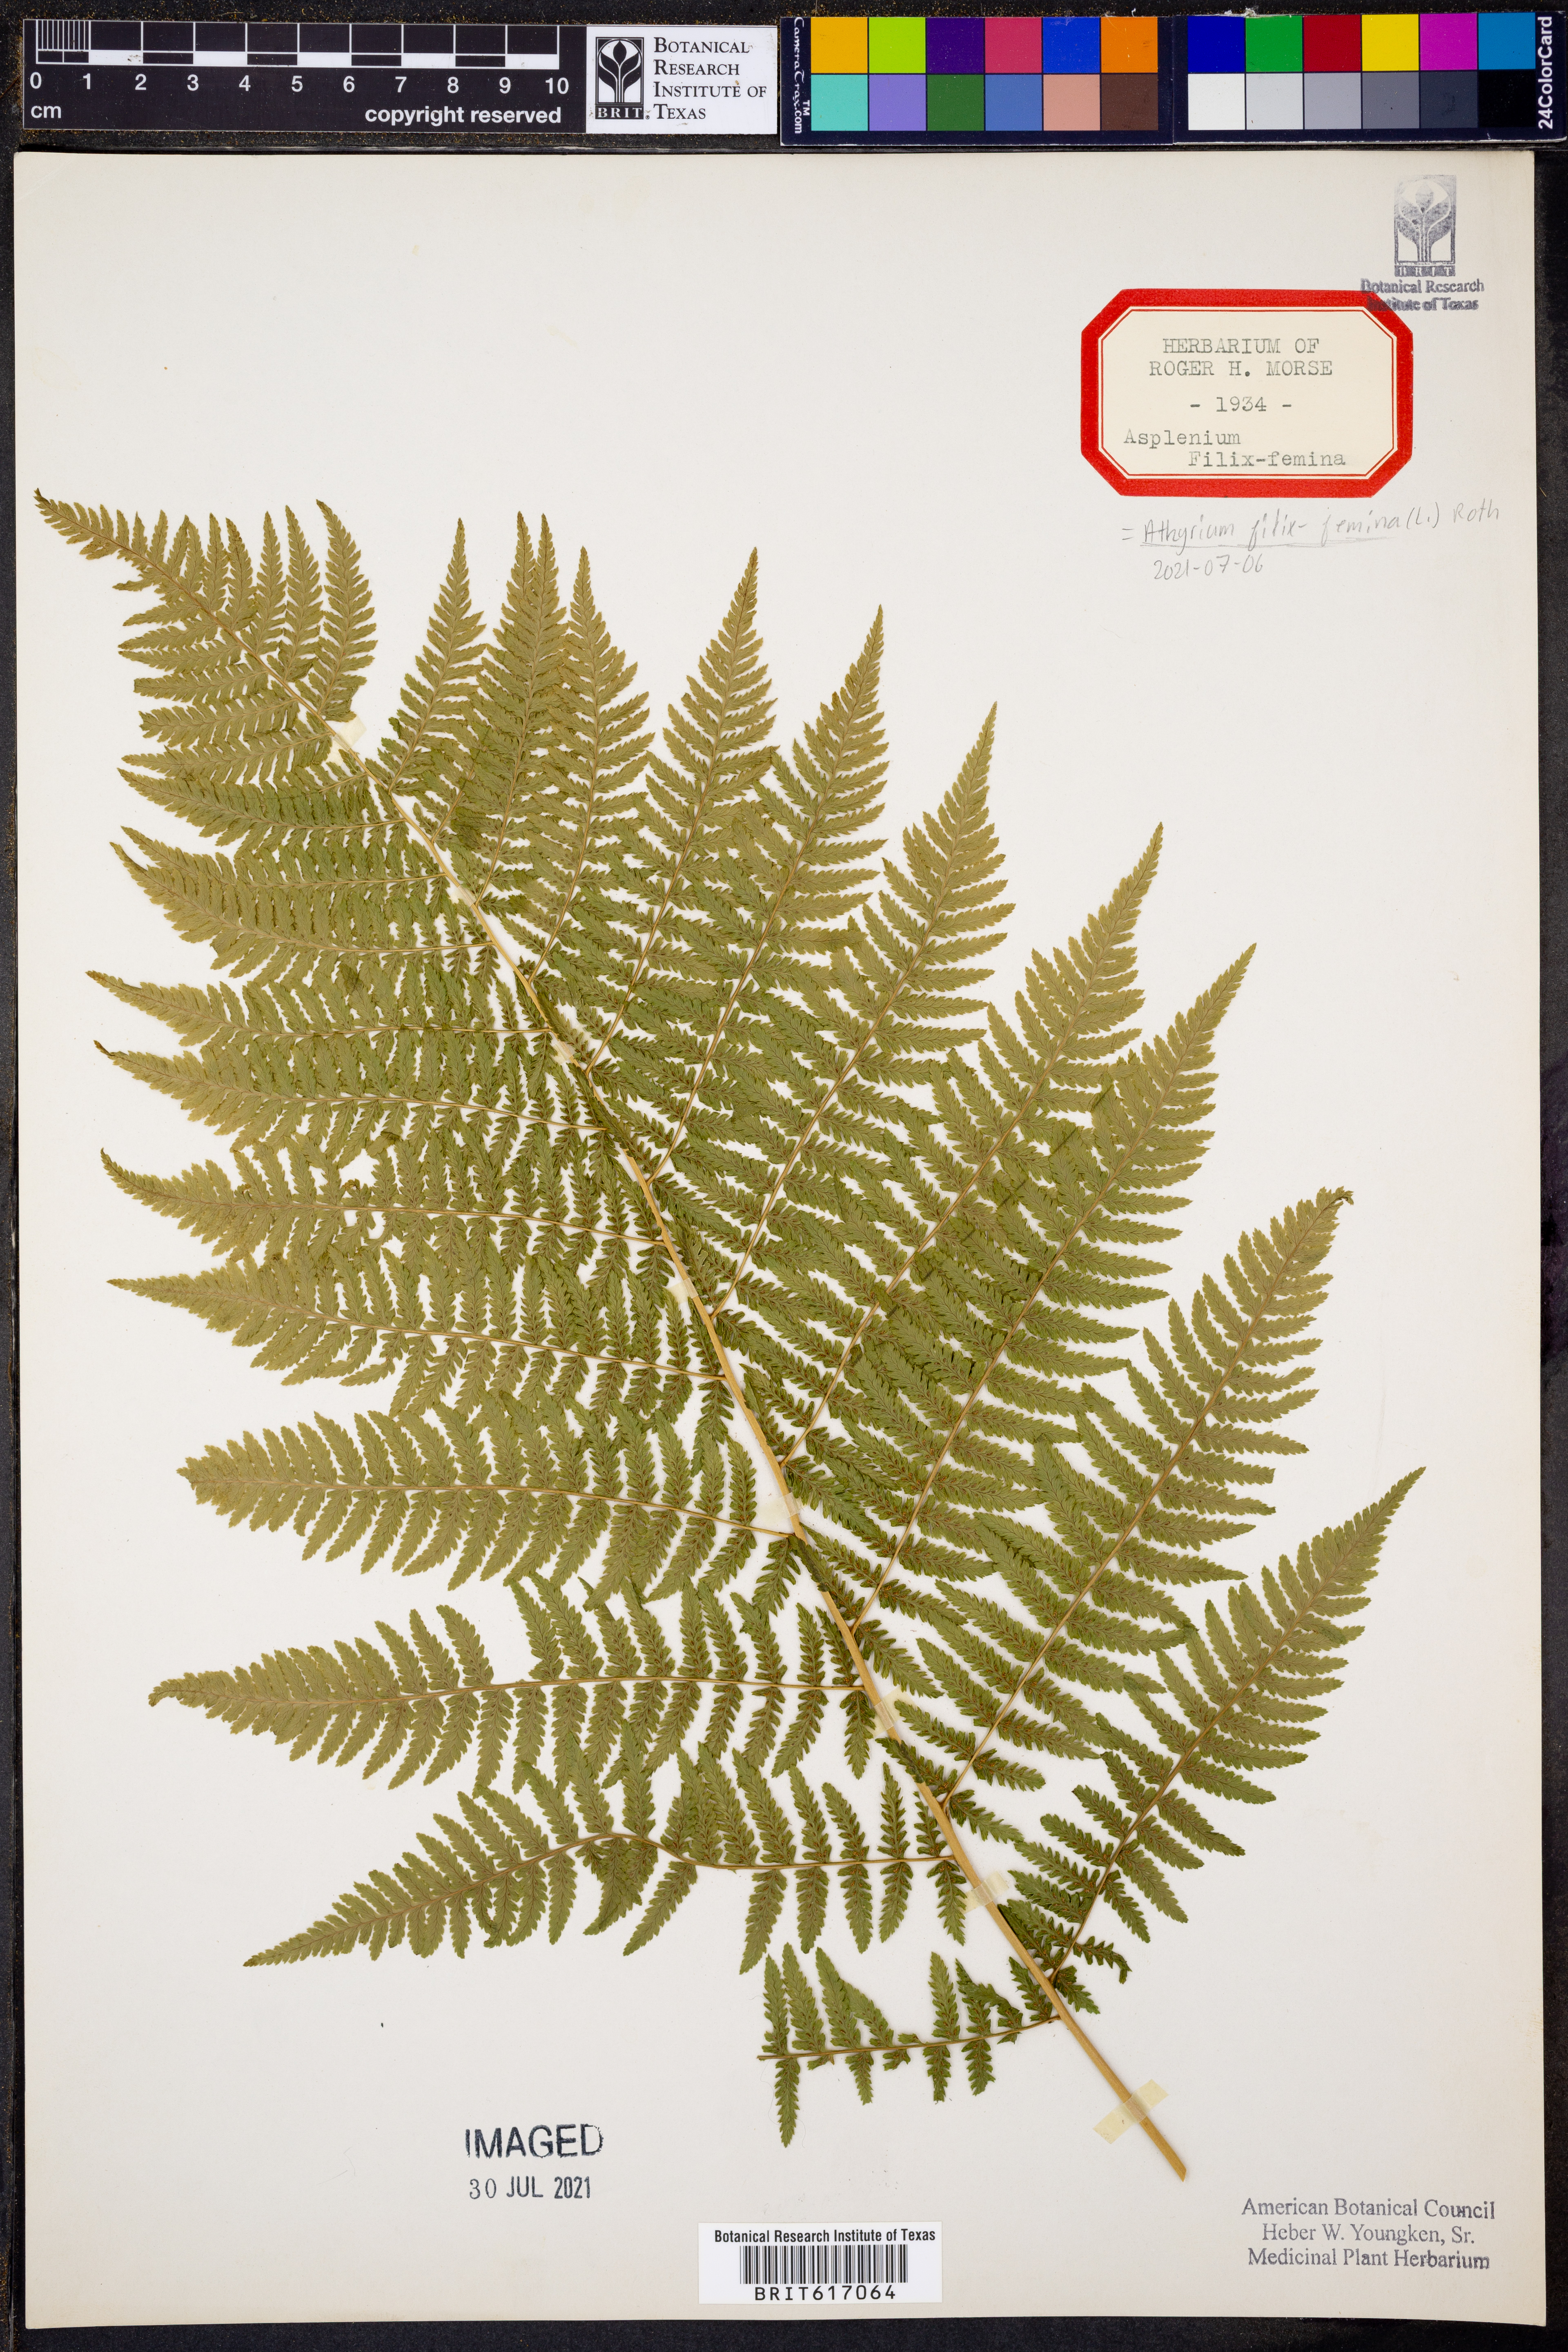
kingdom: Plantae
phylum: Tracheophyta
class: Polypodiopsida
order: Polypodiales
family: Athyriaceae
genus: Athyrium
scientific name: Athyrium filix-femina
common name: Lady fern
